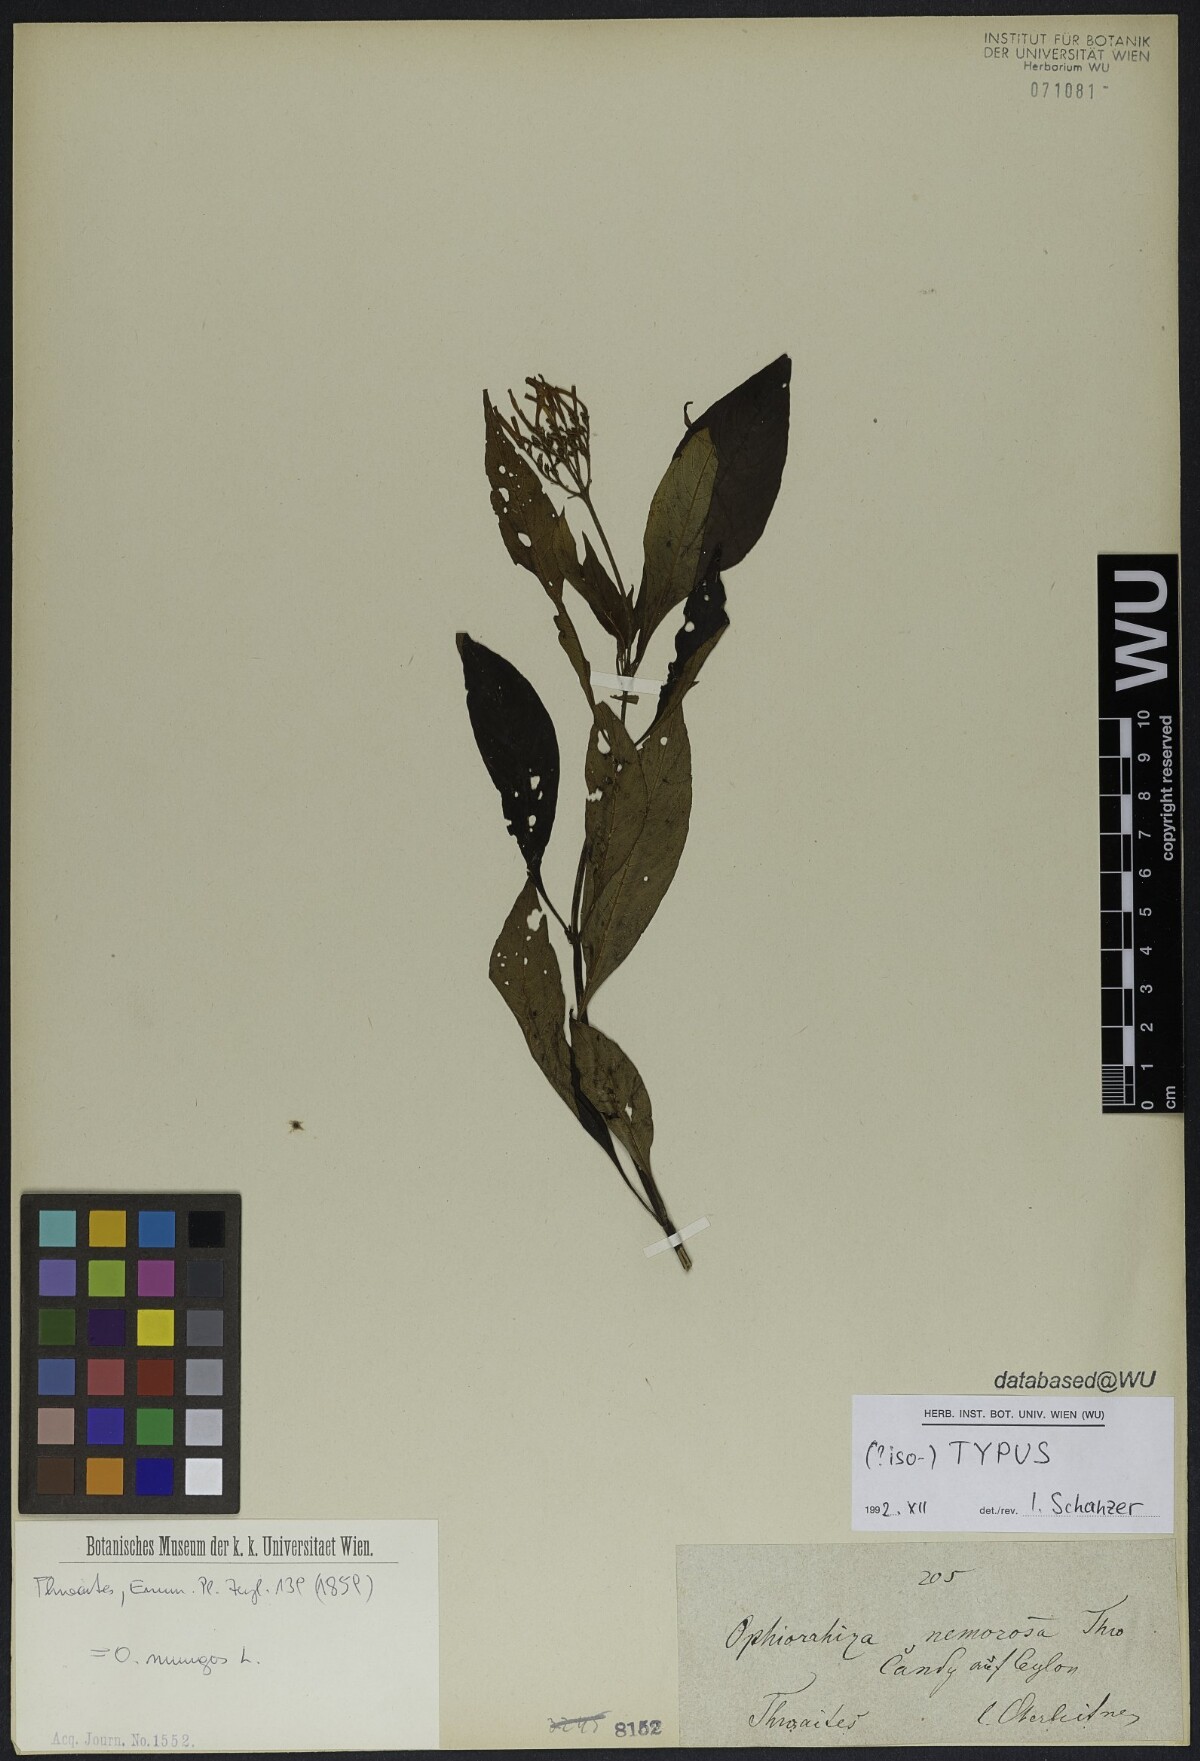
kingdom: Plantae
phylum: Tracheophyta
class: Magnoliopsida
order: Gentianales
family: Rubiaceae
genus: Ophiorrhiza
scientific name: Ophiorrhiza nemorosa
